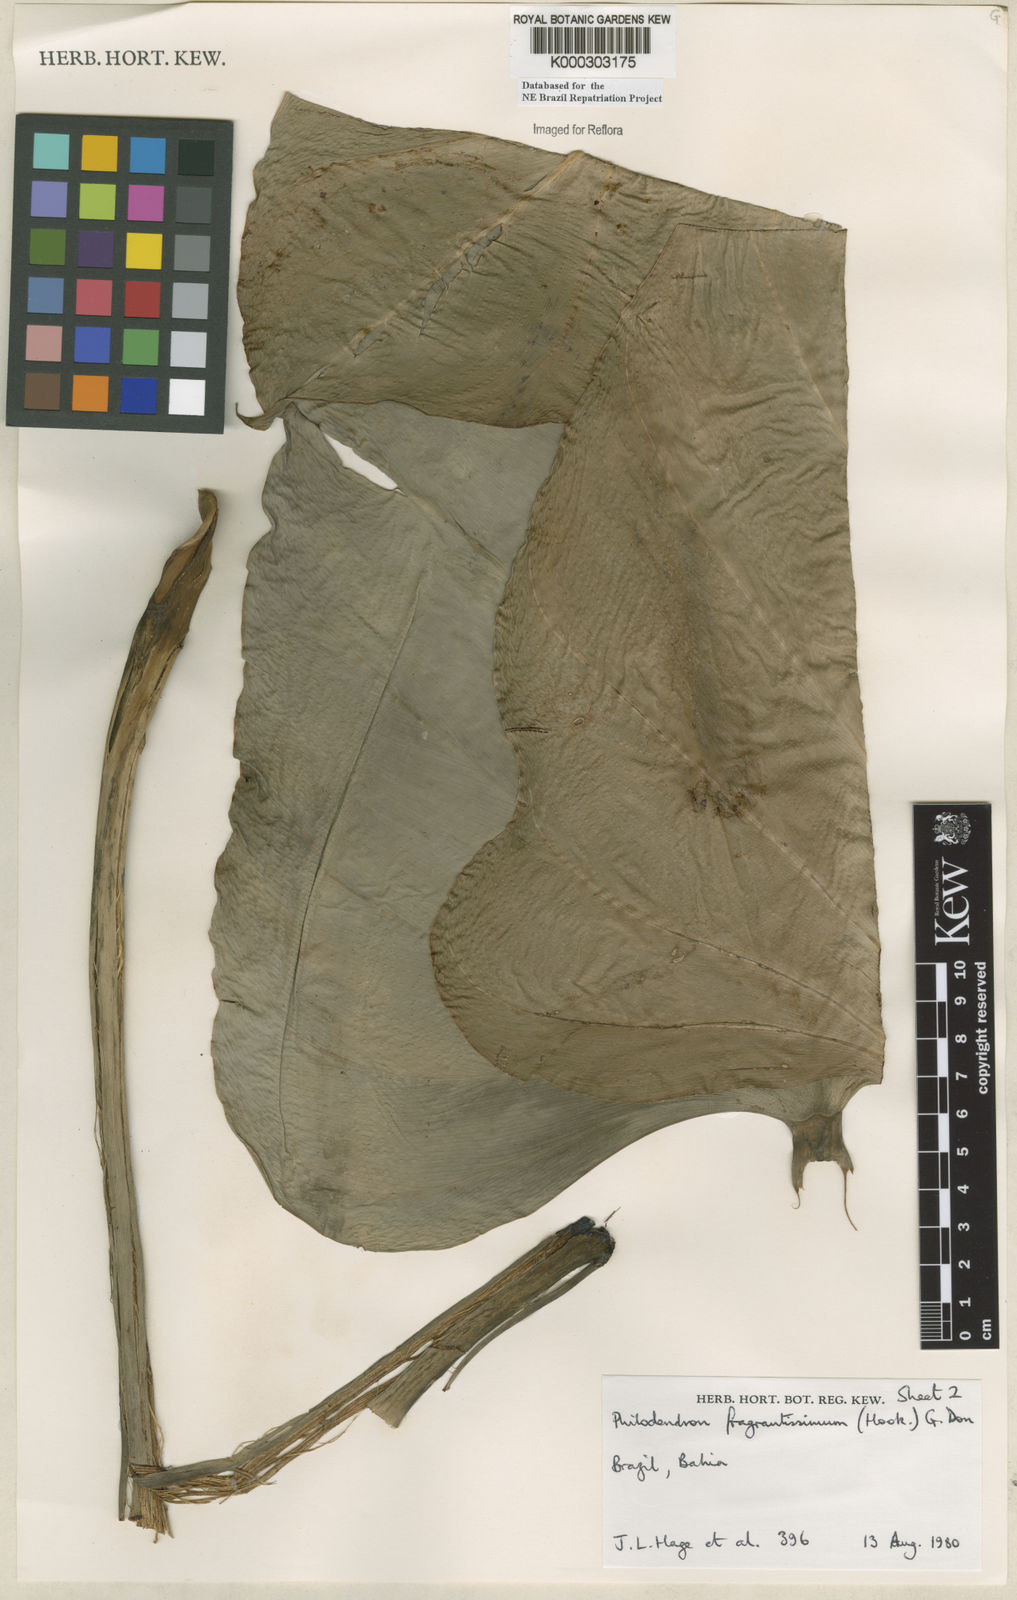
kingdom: Plantae
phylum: Tracheophyta
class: Liliopsida
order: Alismatales
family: Araceae
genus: Philodendron
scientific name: Philodendron fragrantissimum
